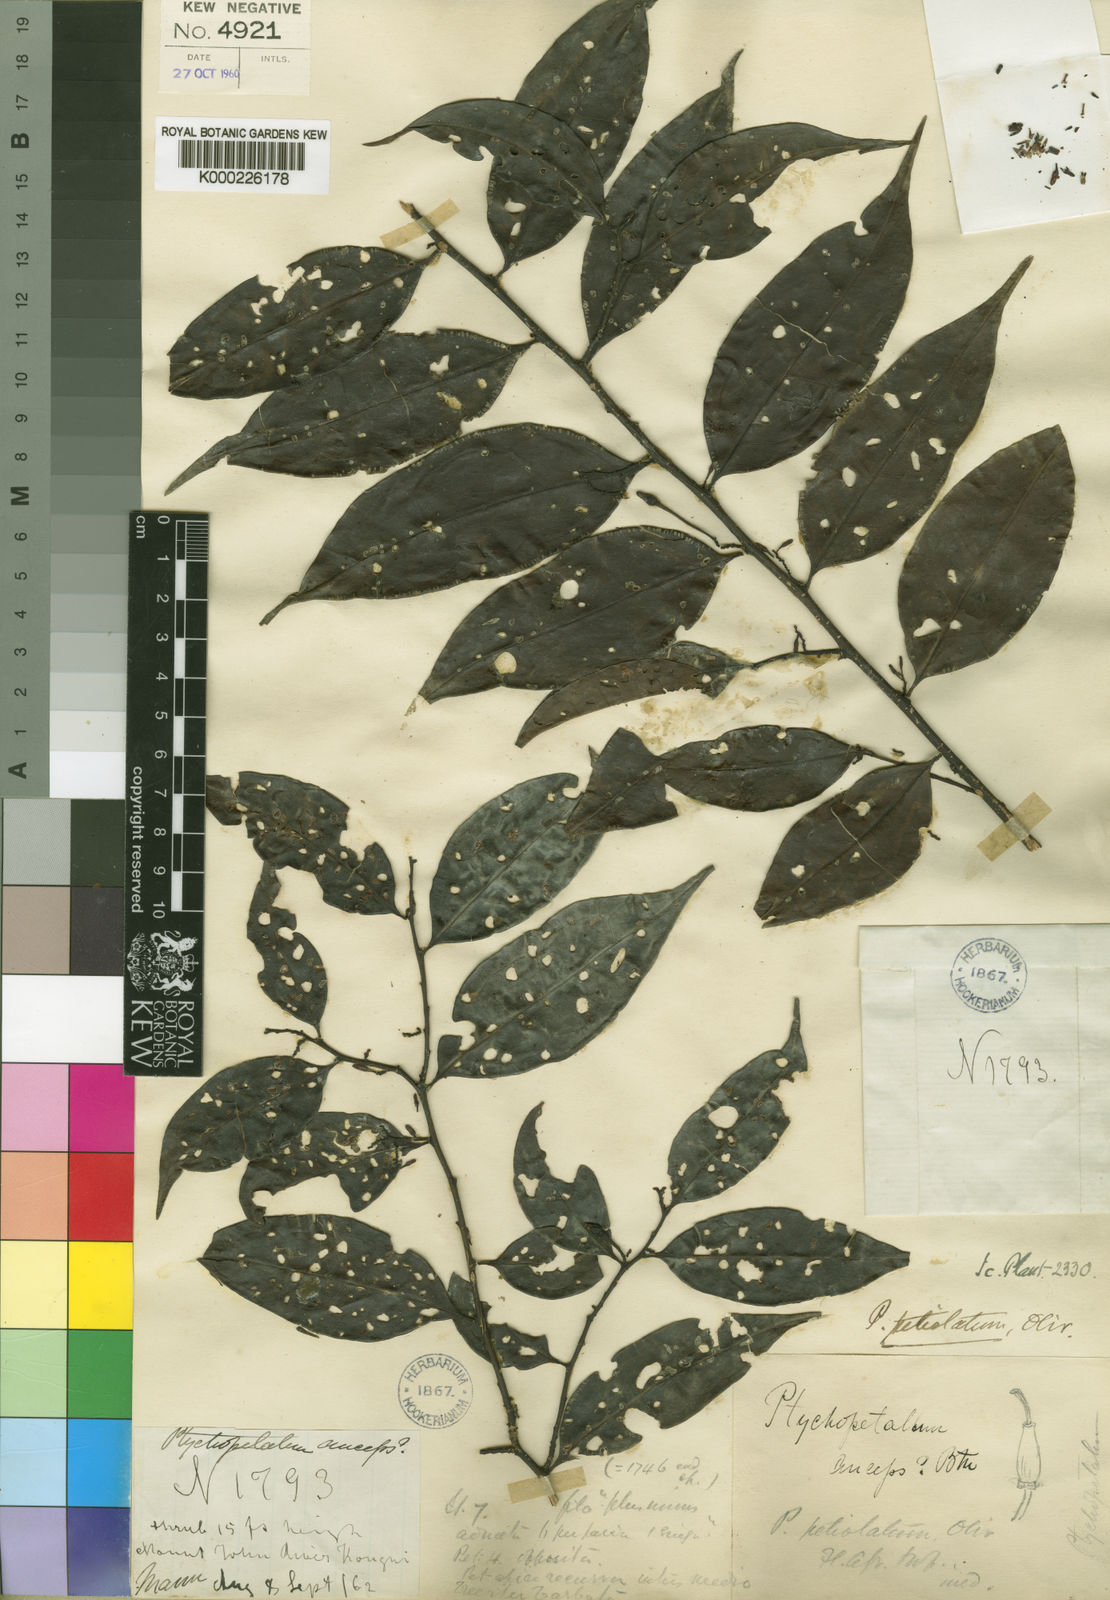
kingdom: Plantae
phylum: Tracheophyta
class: Magnoliopsida
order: Santalales
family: Olacaceae
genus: Ptychopetalum
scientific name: Ptychopetalum petiolatum
